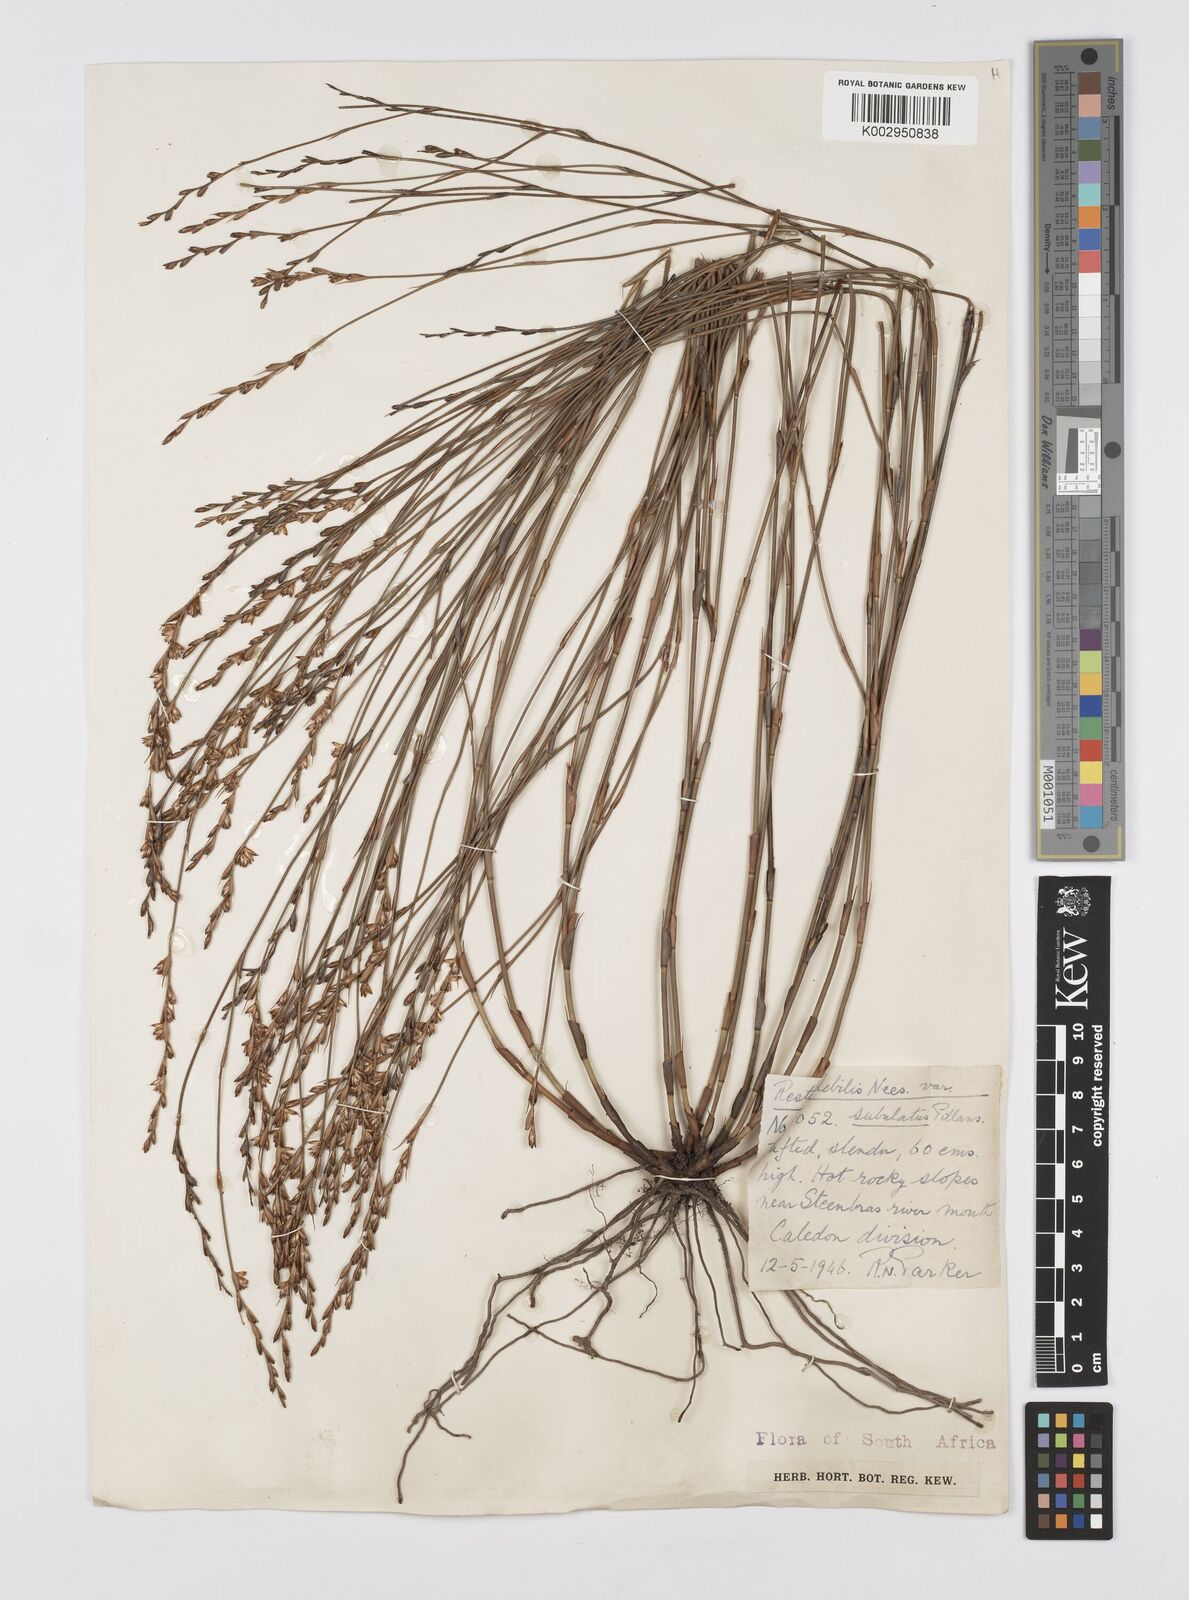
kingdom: Plantae
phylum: Tracheophyta
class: Liliopsida
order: Poales
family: Restionaceae
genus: Restio
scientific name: Restio debilis
